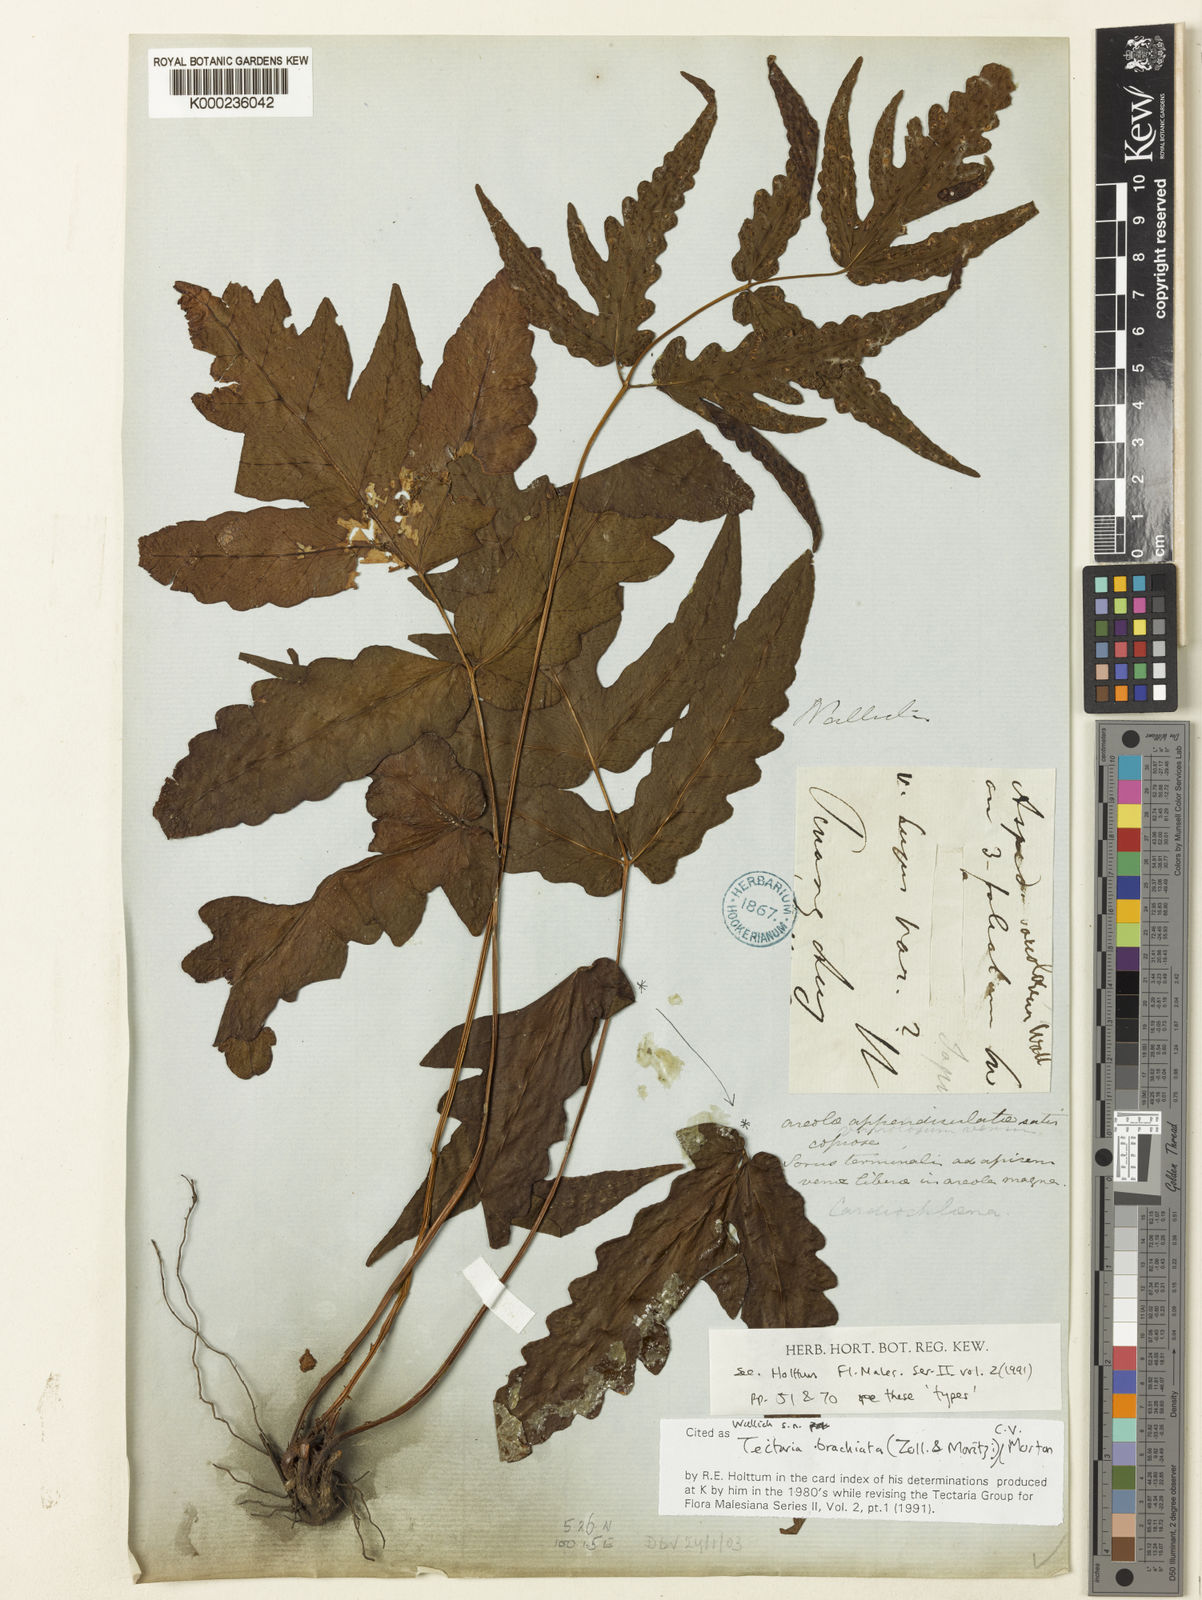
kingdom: Plantae
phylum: Tracheophyta
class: Polypodiopsida
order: Polypodiales
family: Tectariaceae
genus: Tectaria
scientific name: Tectaria brachiata
